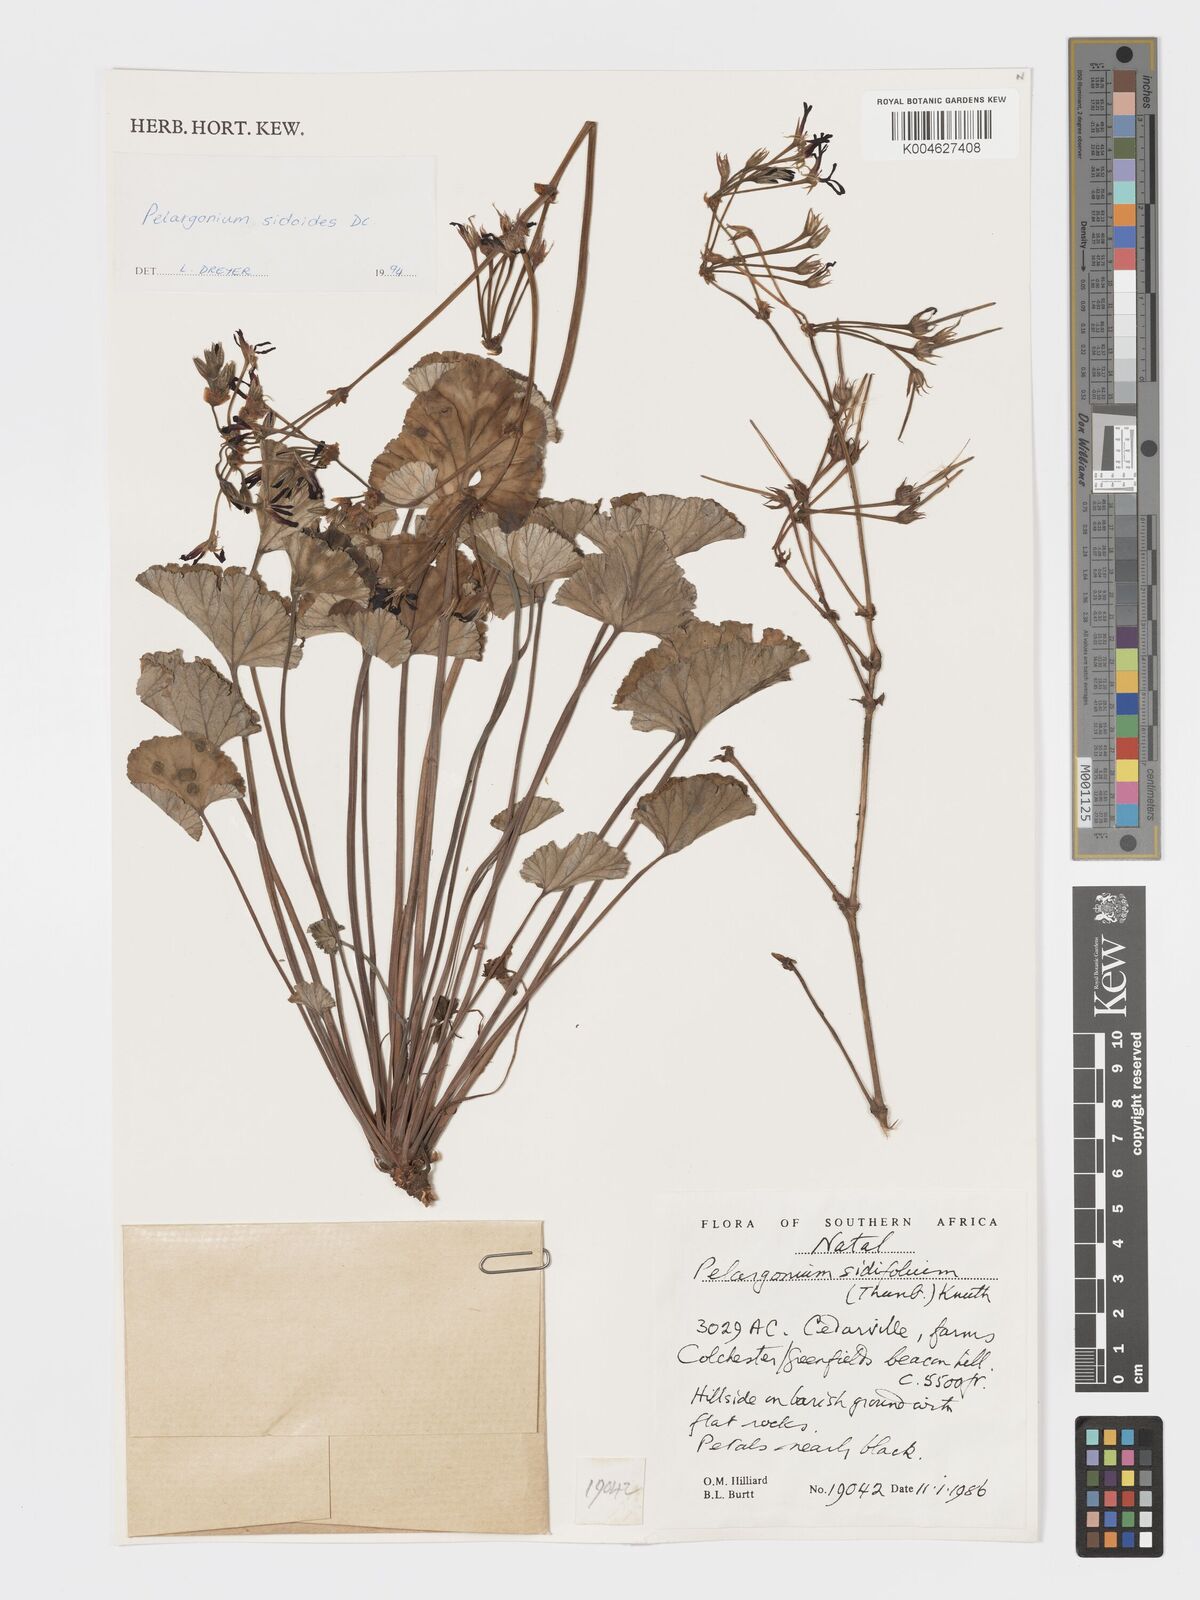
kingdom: Plantae
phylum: Tracheophyta
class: Magnoliopsida
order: Geraniales
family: Geraniaceae
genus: Pelargonium
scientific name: Pelargonium sidoides
